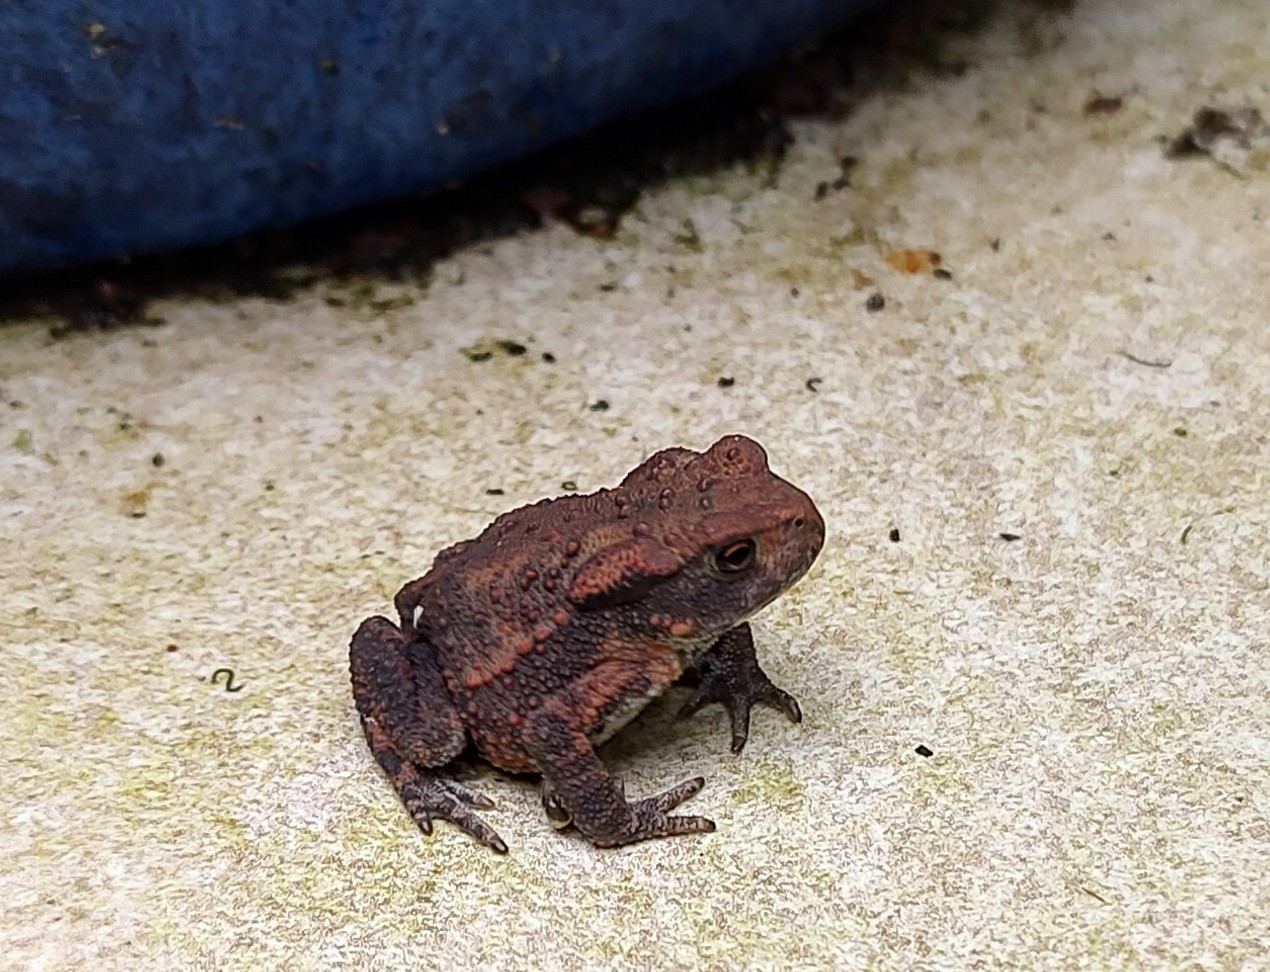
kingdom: Animalia
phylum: Chordata
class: Amphibia
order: Anura
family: Bufonidae
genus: Bufo
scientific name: Bufo bufo
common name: Skrubtudse
